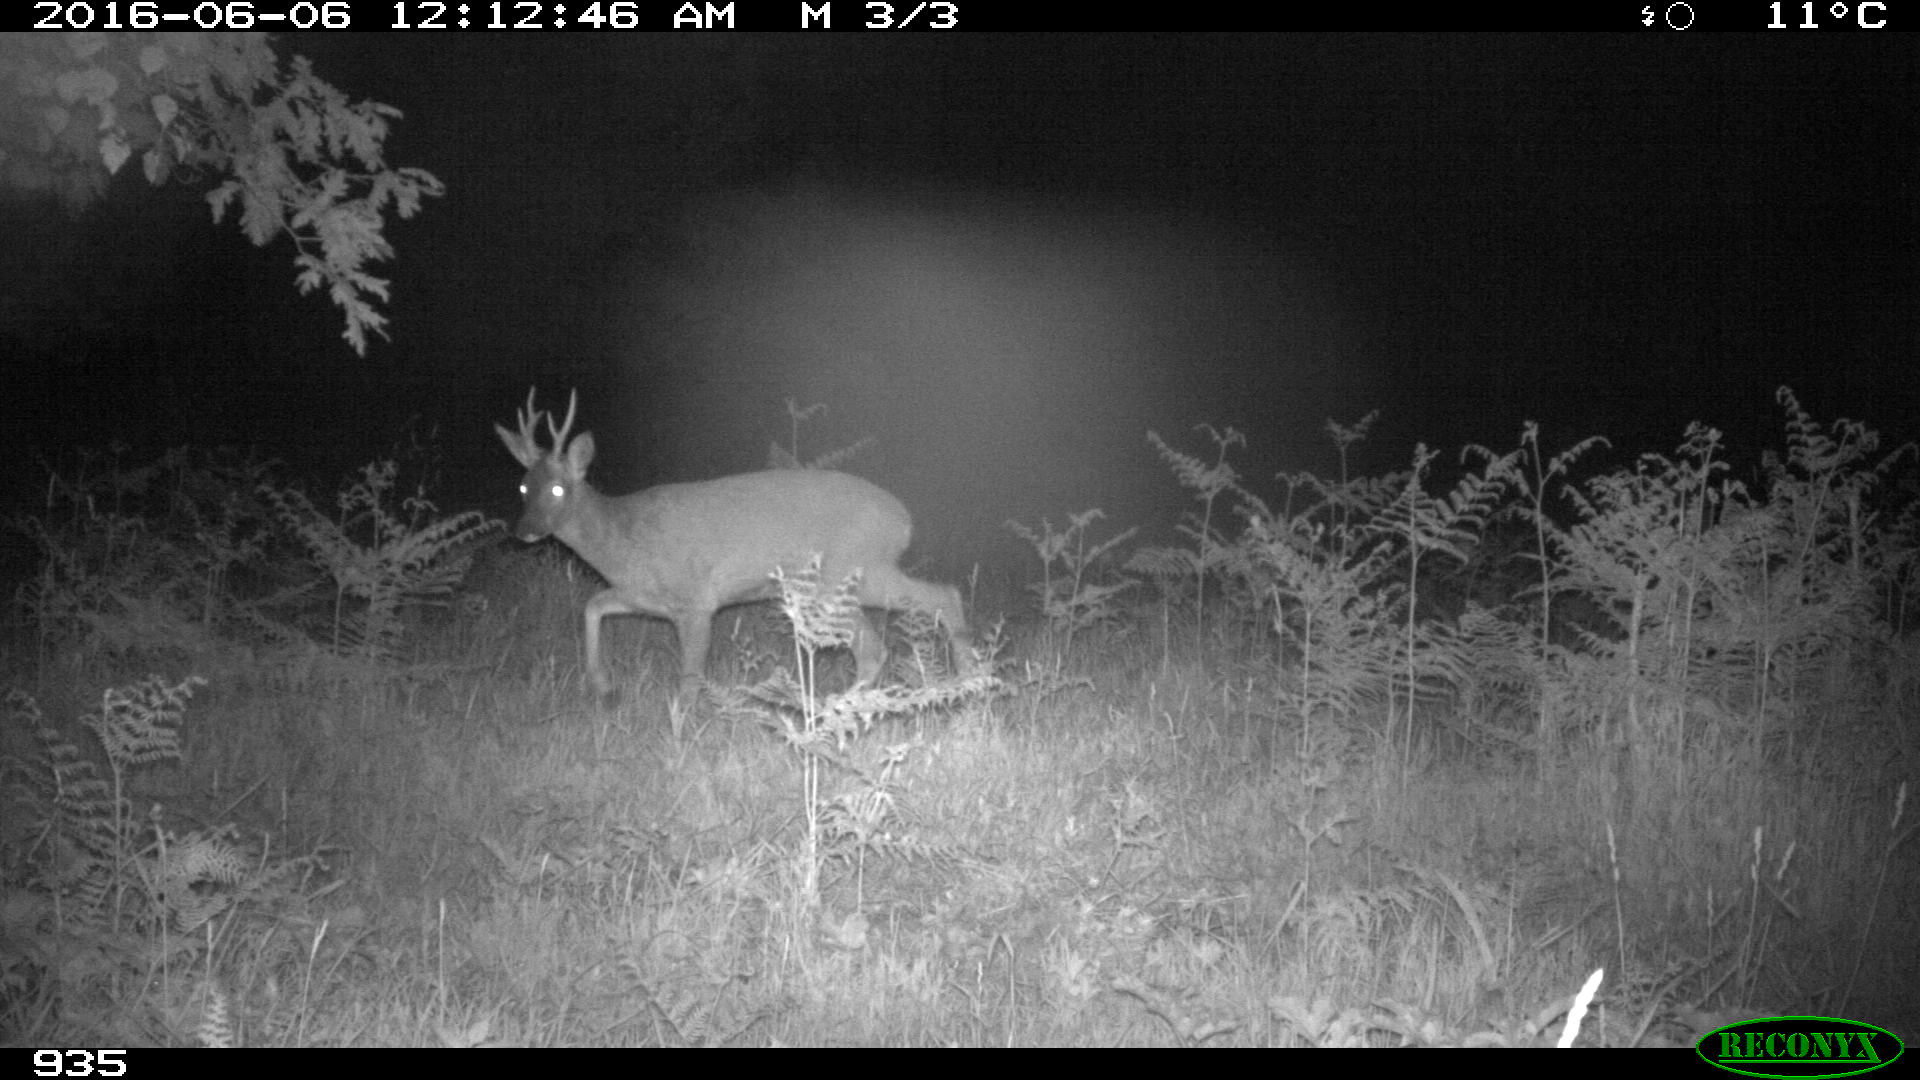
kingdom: Animalia
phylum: Chordata
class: Mammalia
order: Artiodactyla
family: Cervidae
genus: Capreolus
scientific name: Capreolus capreolus
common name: Western roe deer
